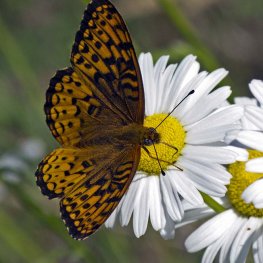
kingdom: Animalia
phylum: Arthropoda
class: Insecta
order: Lepidoptera
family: Nymphalidae
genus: Speyeria
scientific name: Speyeria atlantis
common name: Atlantis Fritillary
